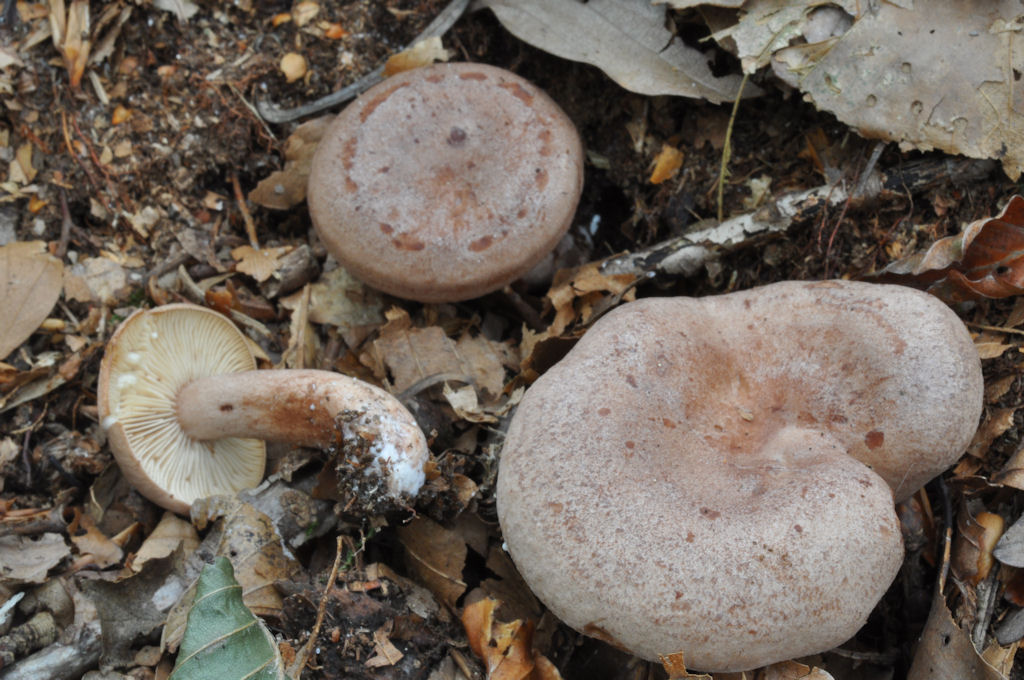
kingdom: Fungi
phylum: Basidiomycota
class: Agaricomycetes
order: Russulales
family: Russulaceae
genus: Lactarius
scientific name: Lactarius quietus
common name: ege-mælkehat
